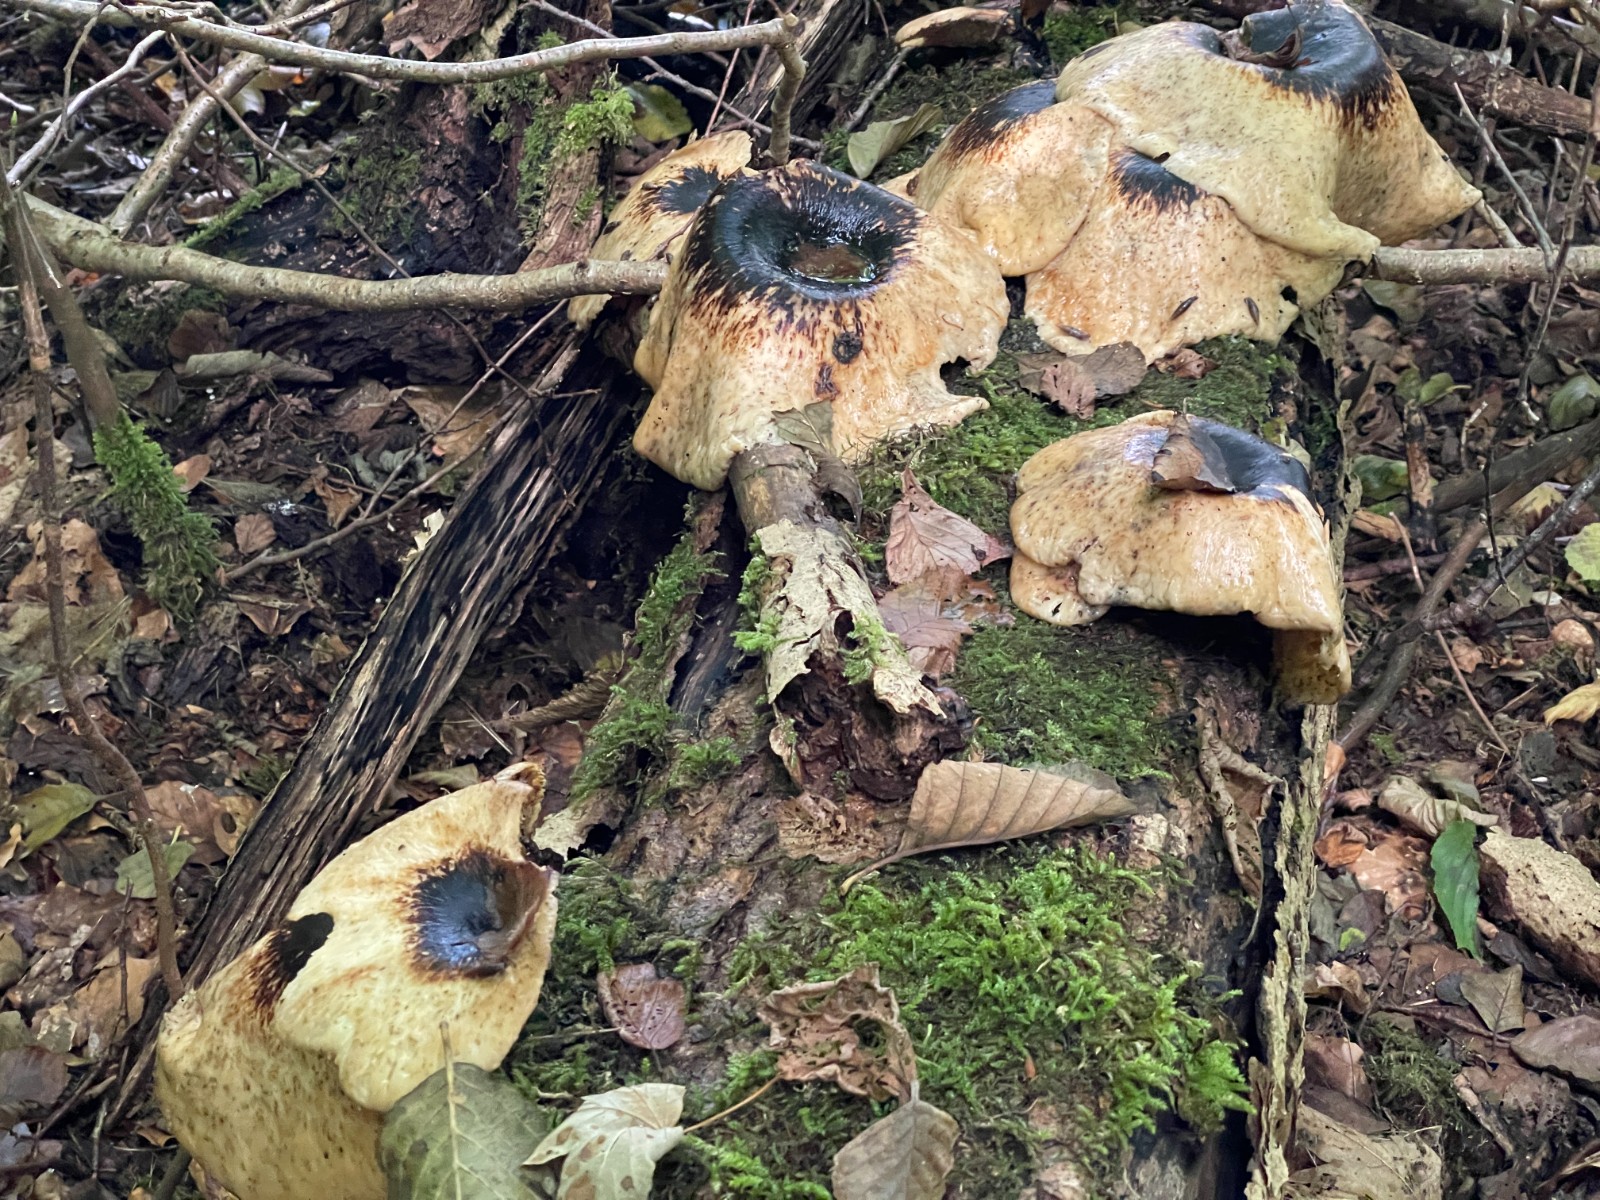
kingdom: Fungi
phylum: Basidiomycota
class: Agaricomycetes
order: Polyporales
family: Polyporaceae
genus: Cerioporus
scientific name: Cerioporus squamosus
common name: skællet stilkporesvamp
